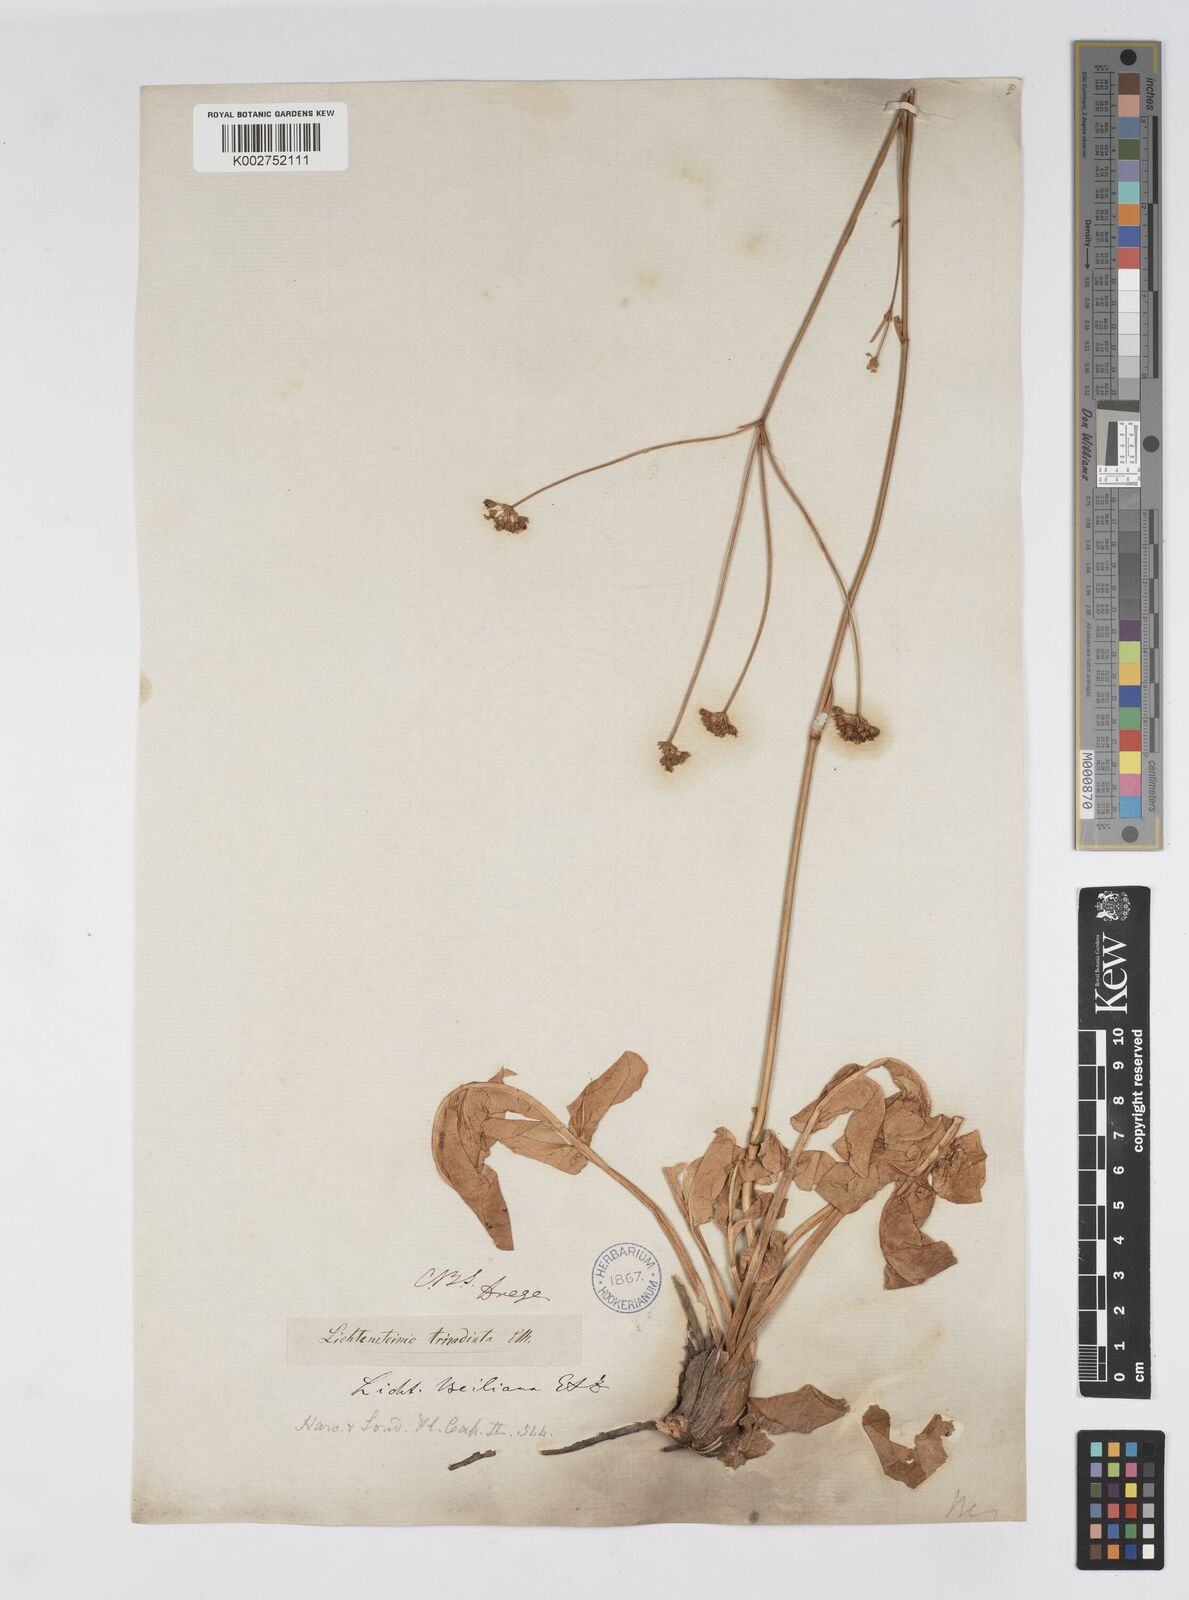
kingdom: Plantae
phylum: Tracheophyta
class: Magnoliopsida
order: Apiales
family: Apiaceae
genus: Lichtensteinia
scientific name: Lichtensteinia obscura
